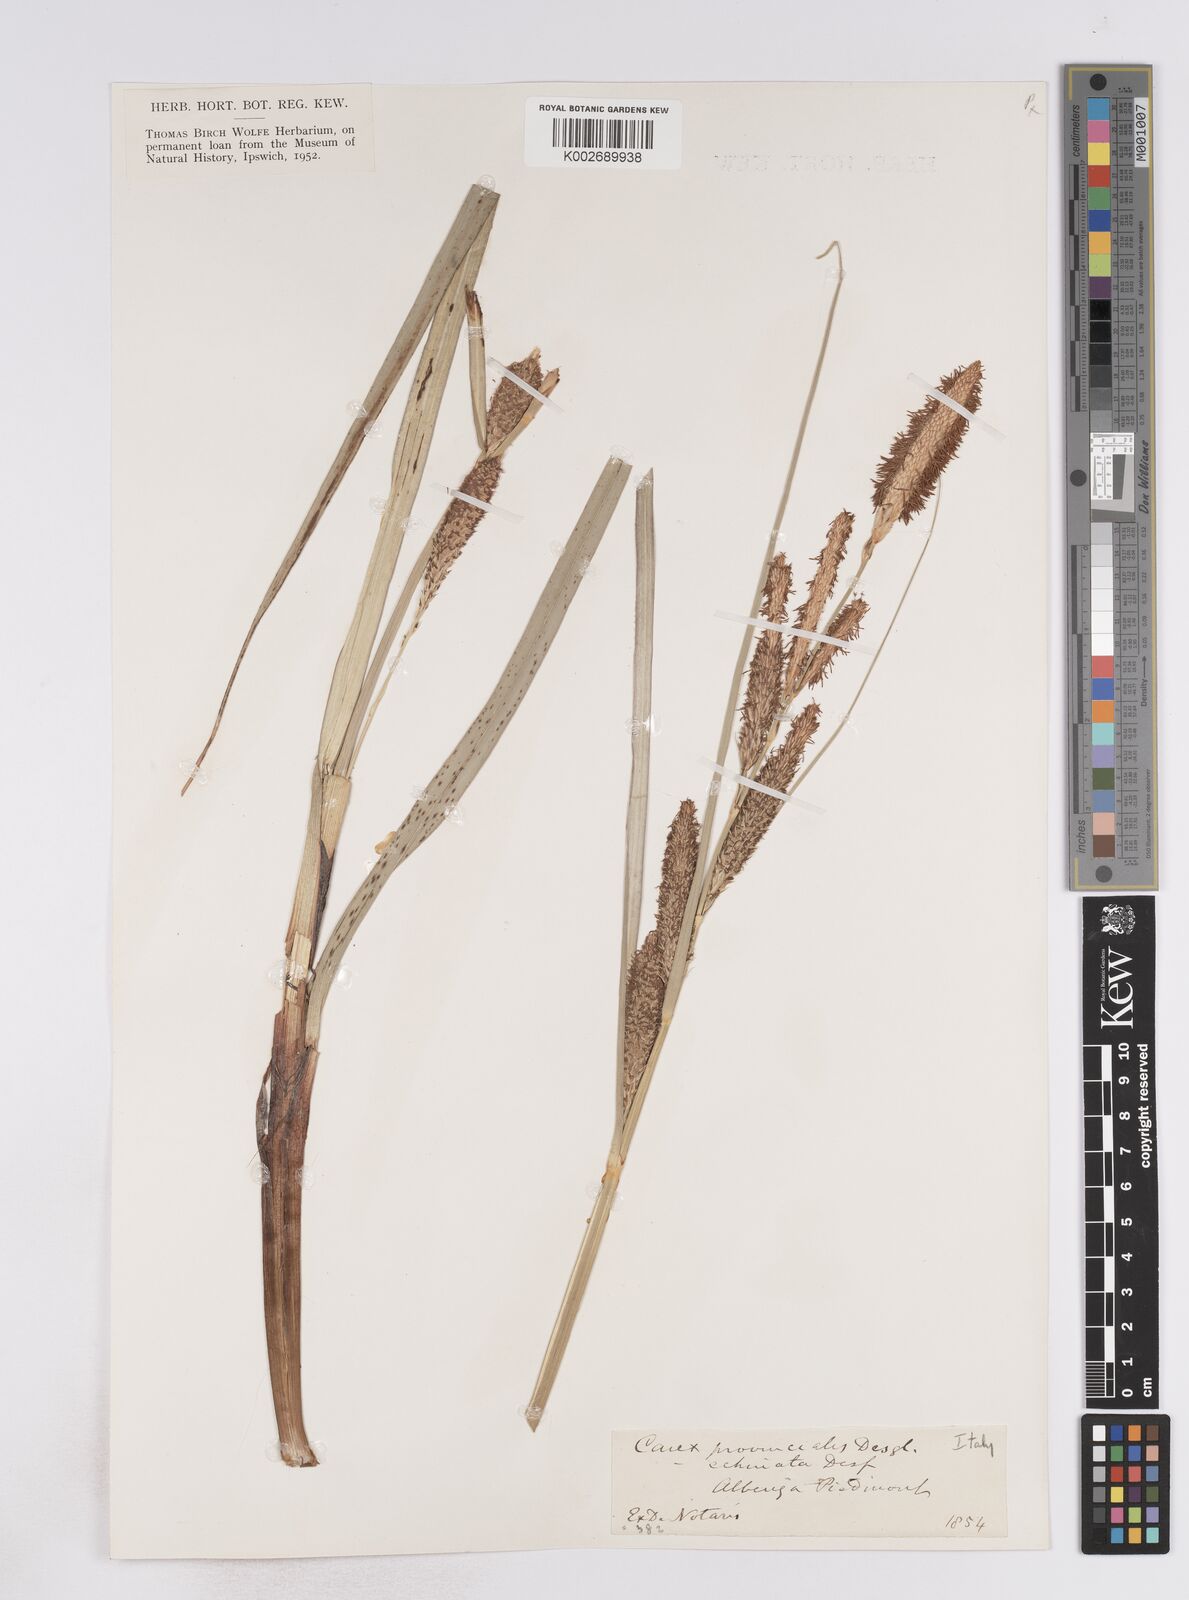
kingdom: Plantae
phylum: Tracheophyta
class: Liliopsida
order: Poales
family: Cyperaceae
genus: Carex
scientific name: Carex hispida
